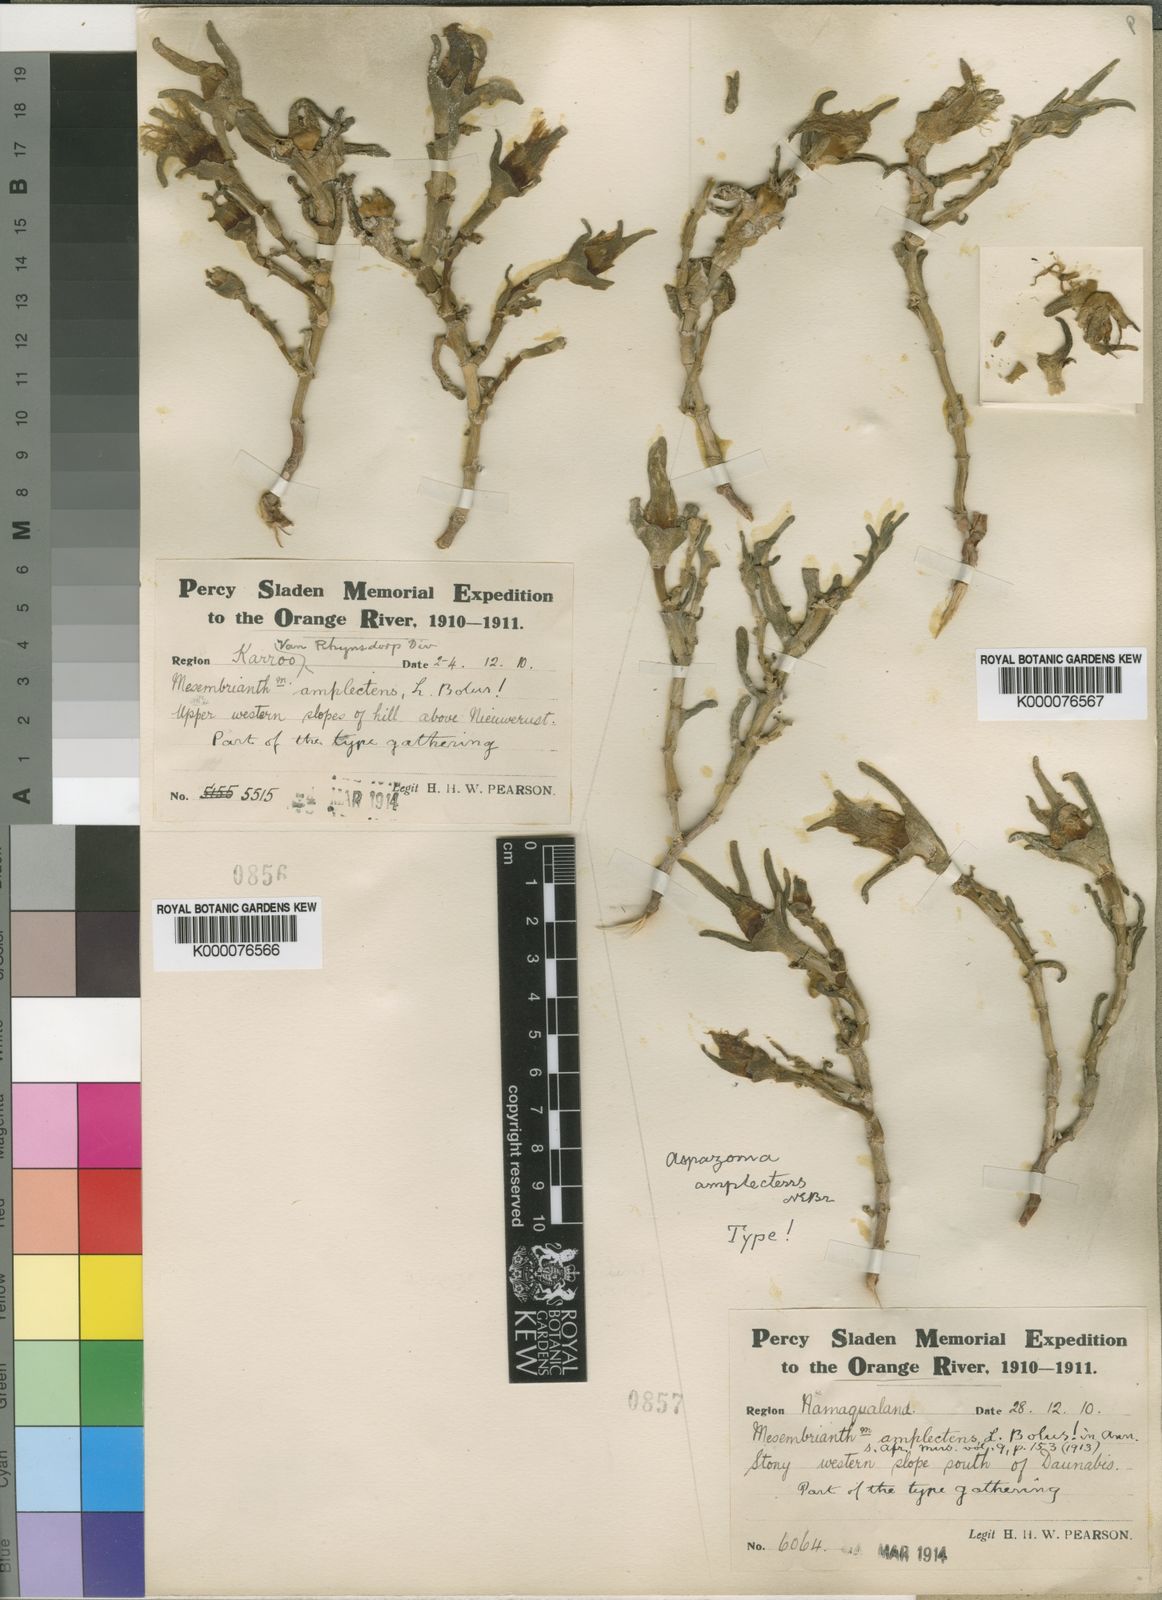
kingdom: Plantae
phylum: Tracheophyta
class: Magnoliopsida
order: Caryophyllales
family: Aizoaceae
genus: Mesembryanthemum
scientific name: Mesembryanthemum amplectens
